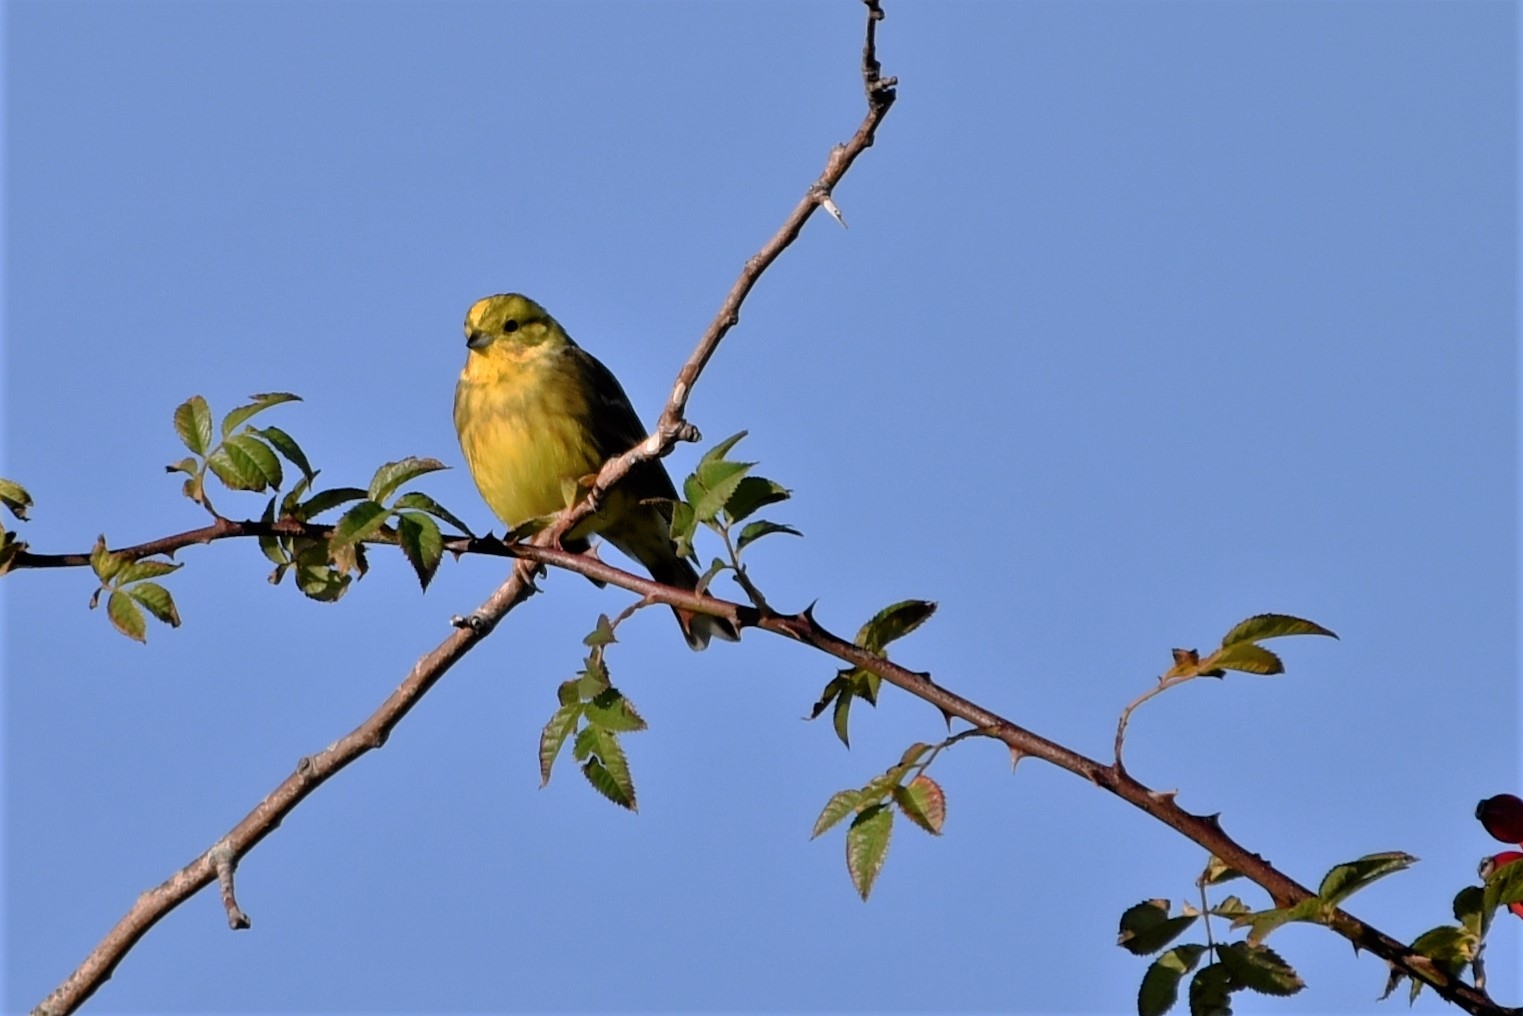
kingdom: Animalia
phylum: Chordata
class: Aves
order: Passeriformes
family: Emberizidae
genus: Emberiza
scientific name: Emberiza citrinella
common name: Gulspurv
